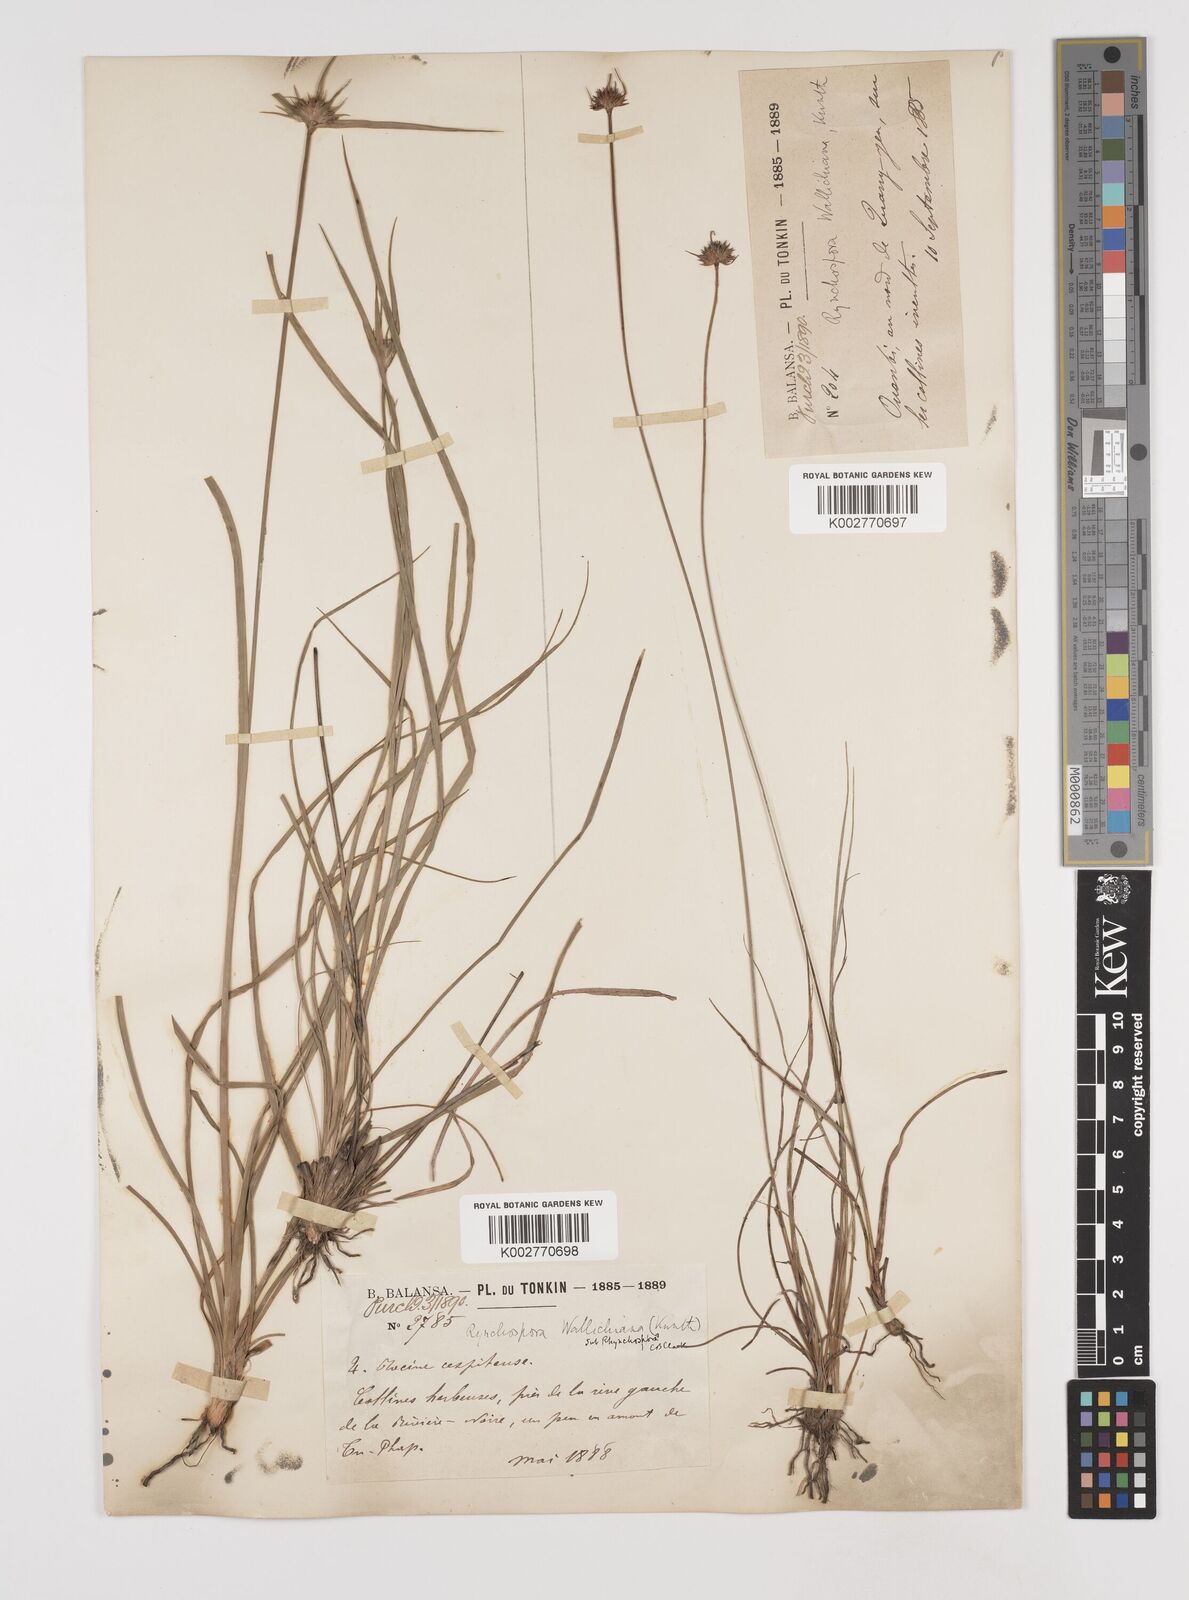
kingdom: Plantae
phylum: Tracheophyta
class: Liliopsida
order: Poales
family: Cyperaceae
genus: Rhynchospora
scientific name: Rhynchospora rubra
